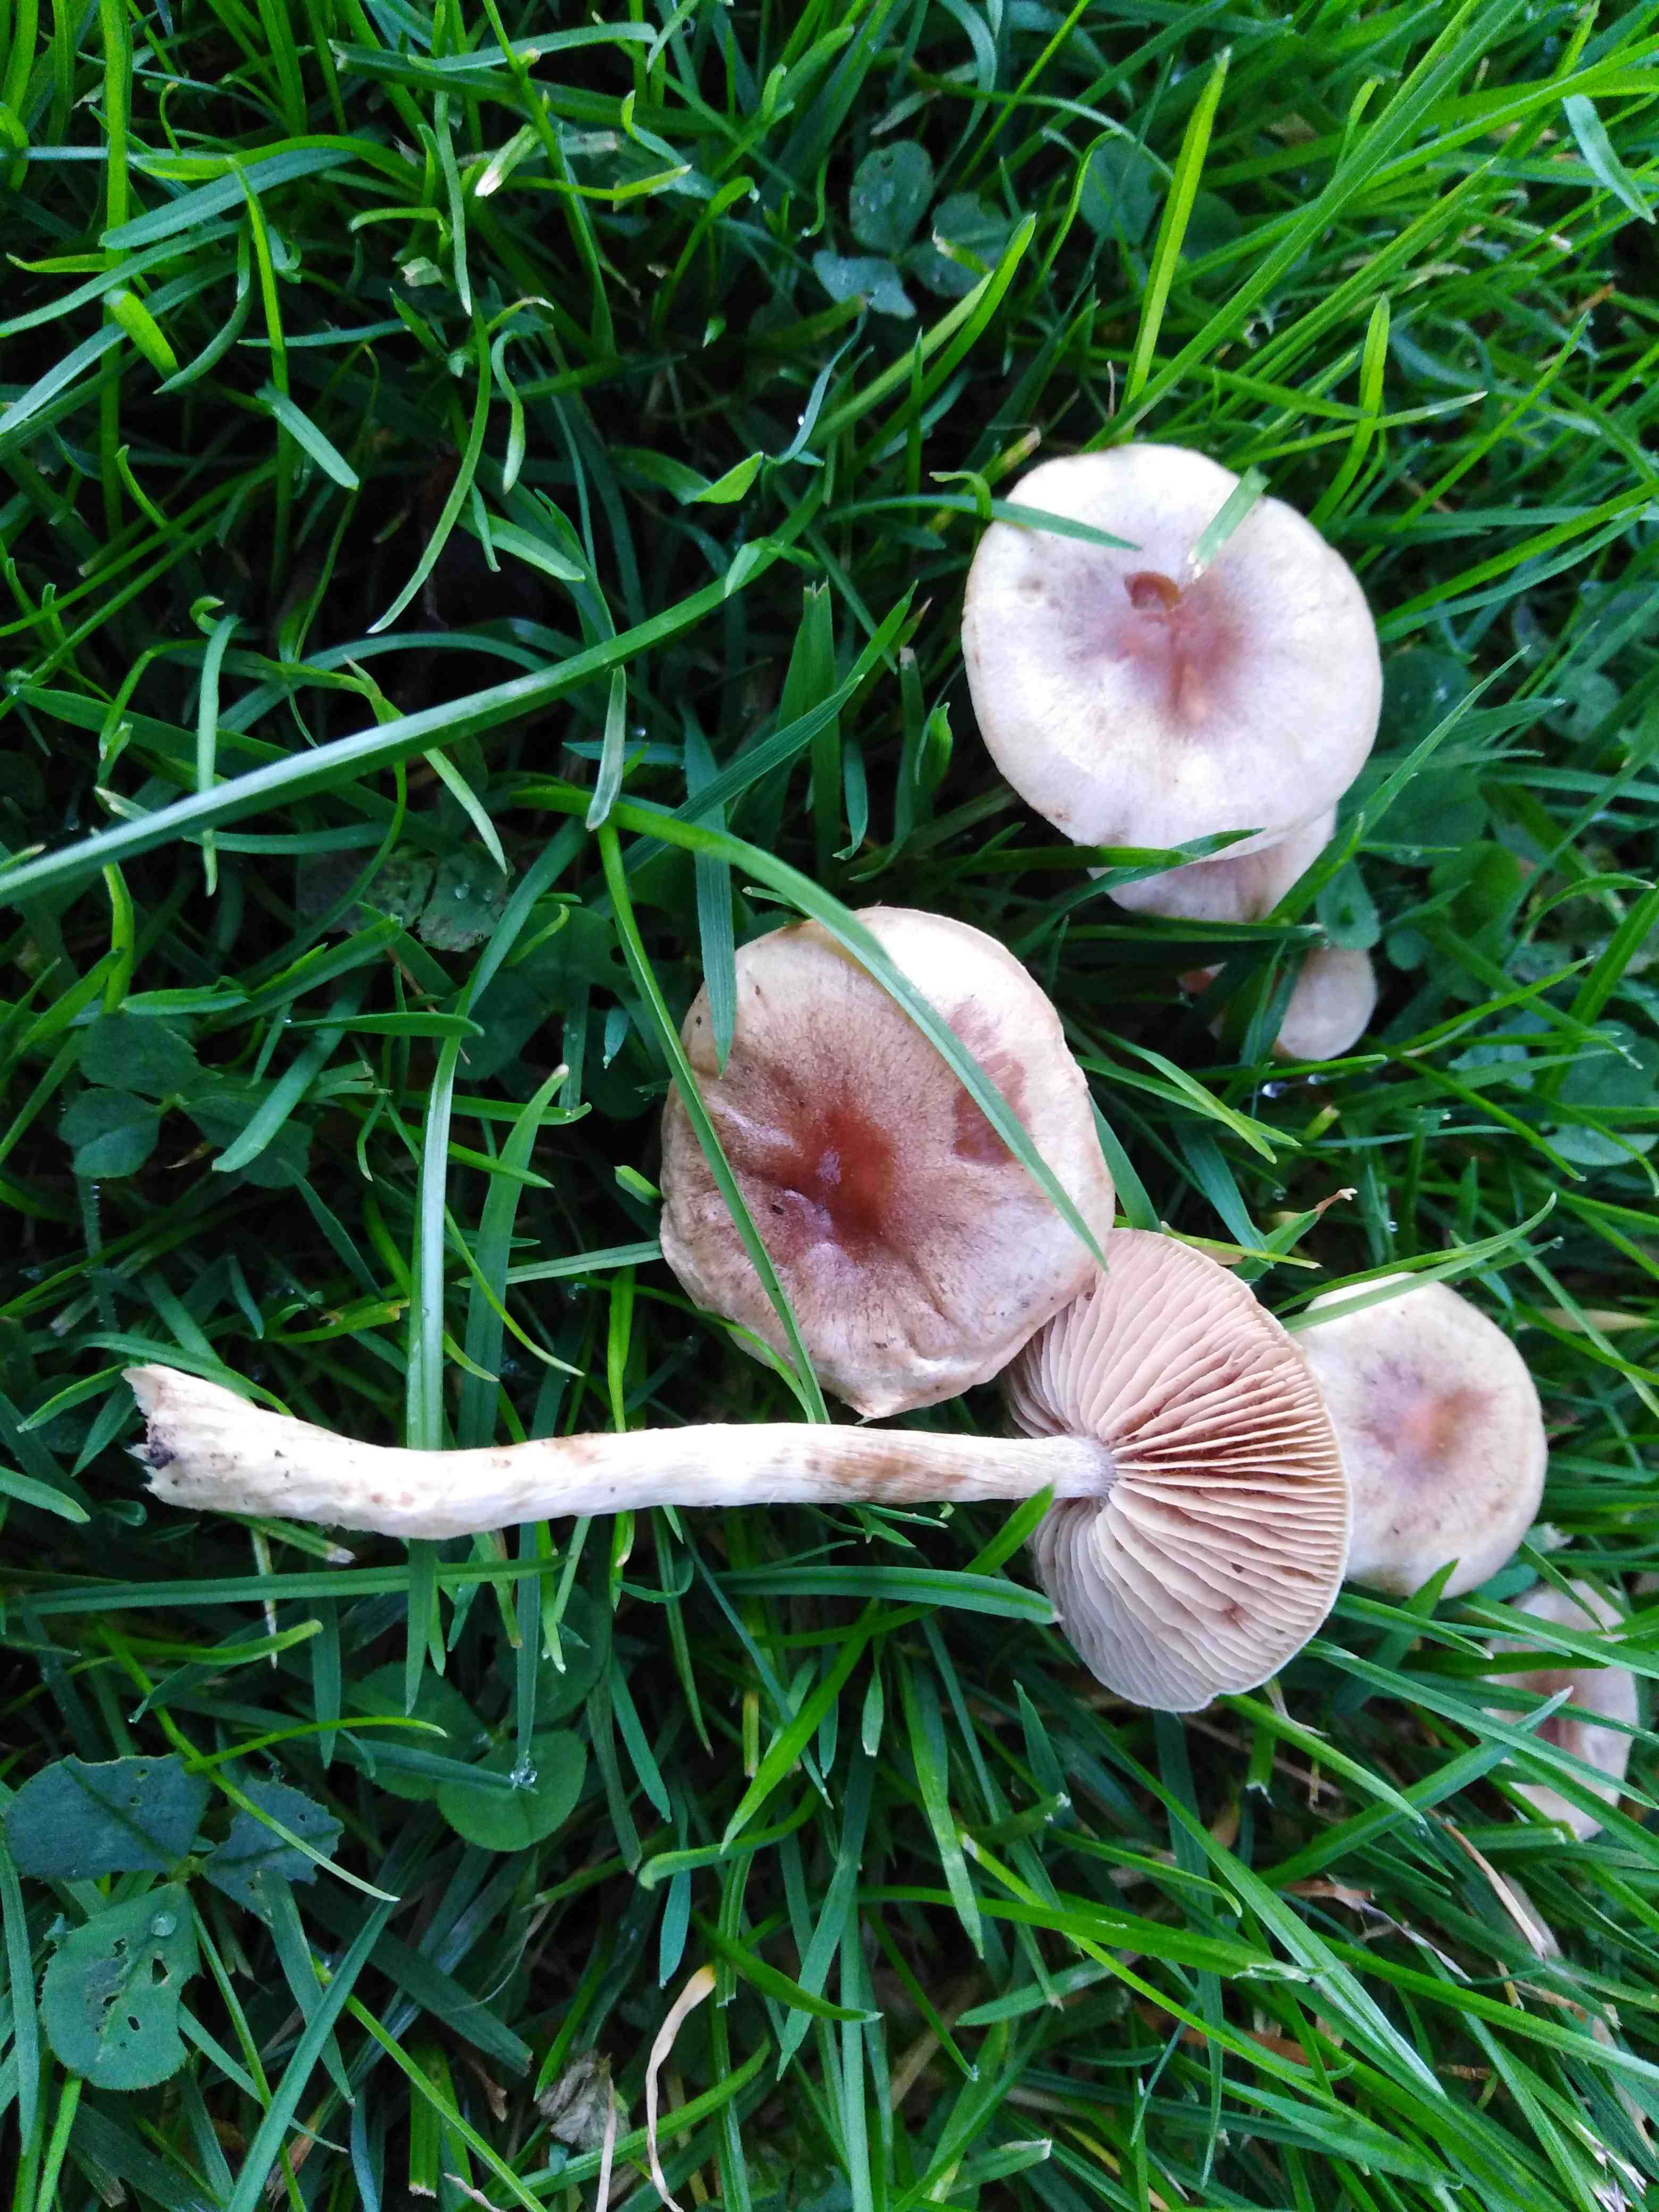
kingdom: Fungi
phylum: Basidiomycota
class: Agaricomycetes
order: Agaricales
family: Hymenogastraceae
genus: Hebeloma
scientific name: Hebeloma
